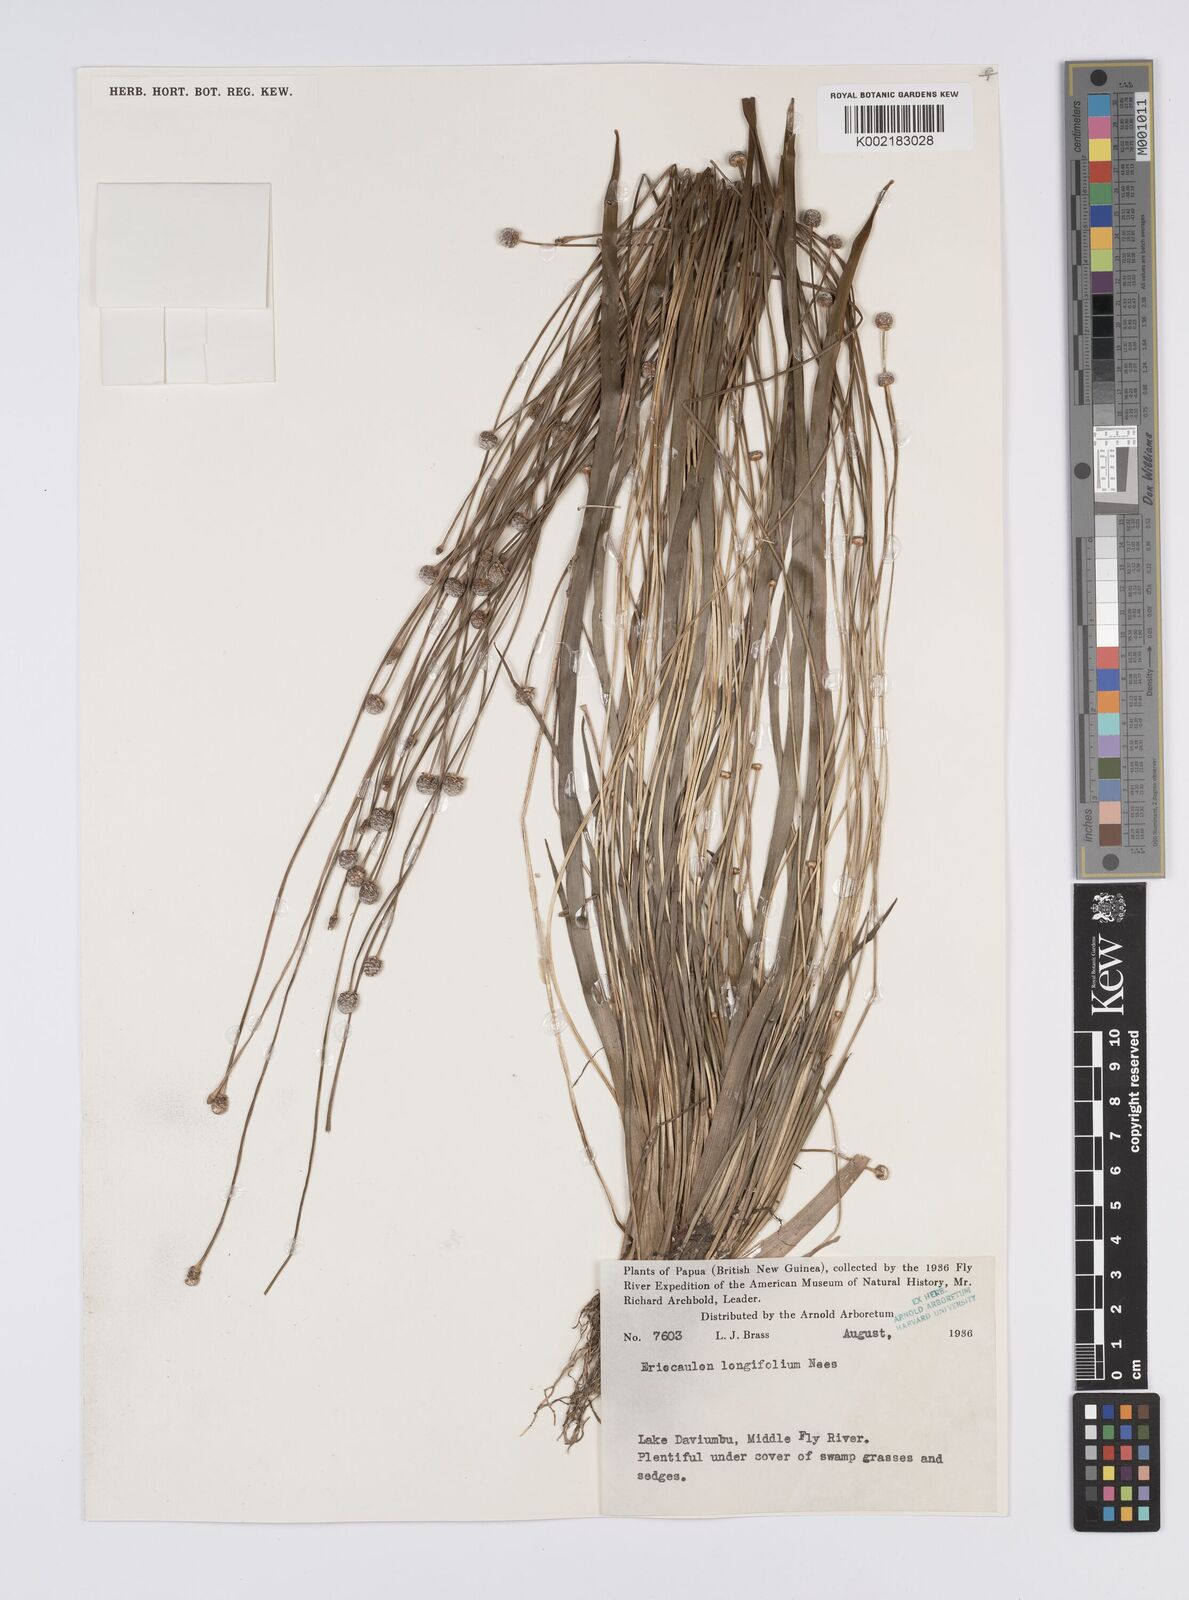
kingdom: Plantae
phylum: Tracheophyta
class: Liliopsida
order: Poales
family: Eriocaulaceae
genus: Eriocaulon
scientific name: Eriocaulon willdenovianum
